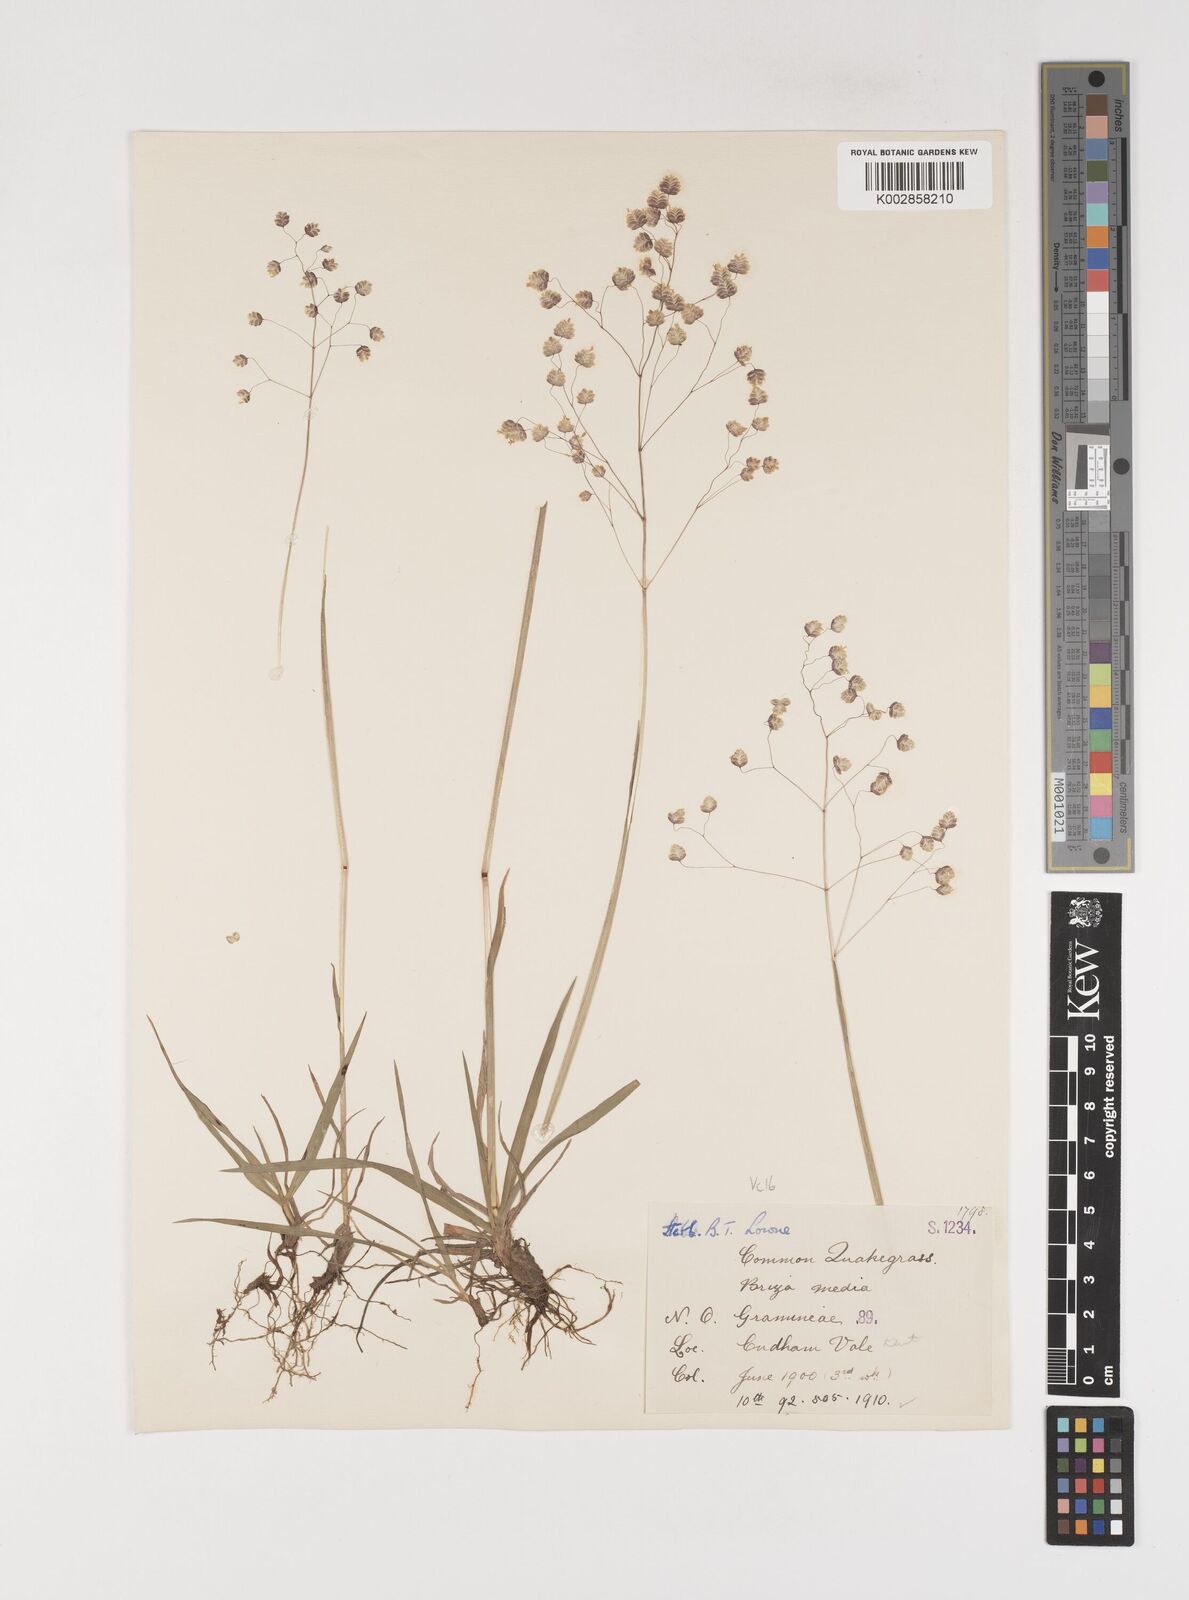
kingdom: Plantae
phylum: Tracheophyta
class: Liliopsida
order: Poales
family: Poaceae
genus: Briza
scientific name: Briza media
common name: Quaking grass
